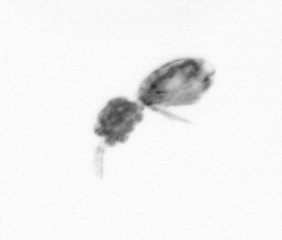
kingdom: Animalia
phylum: Arthropoda
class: Copepoda
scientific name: Copepoda
